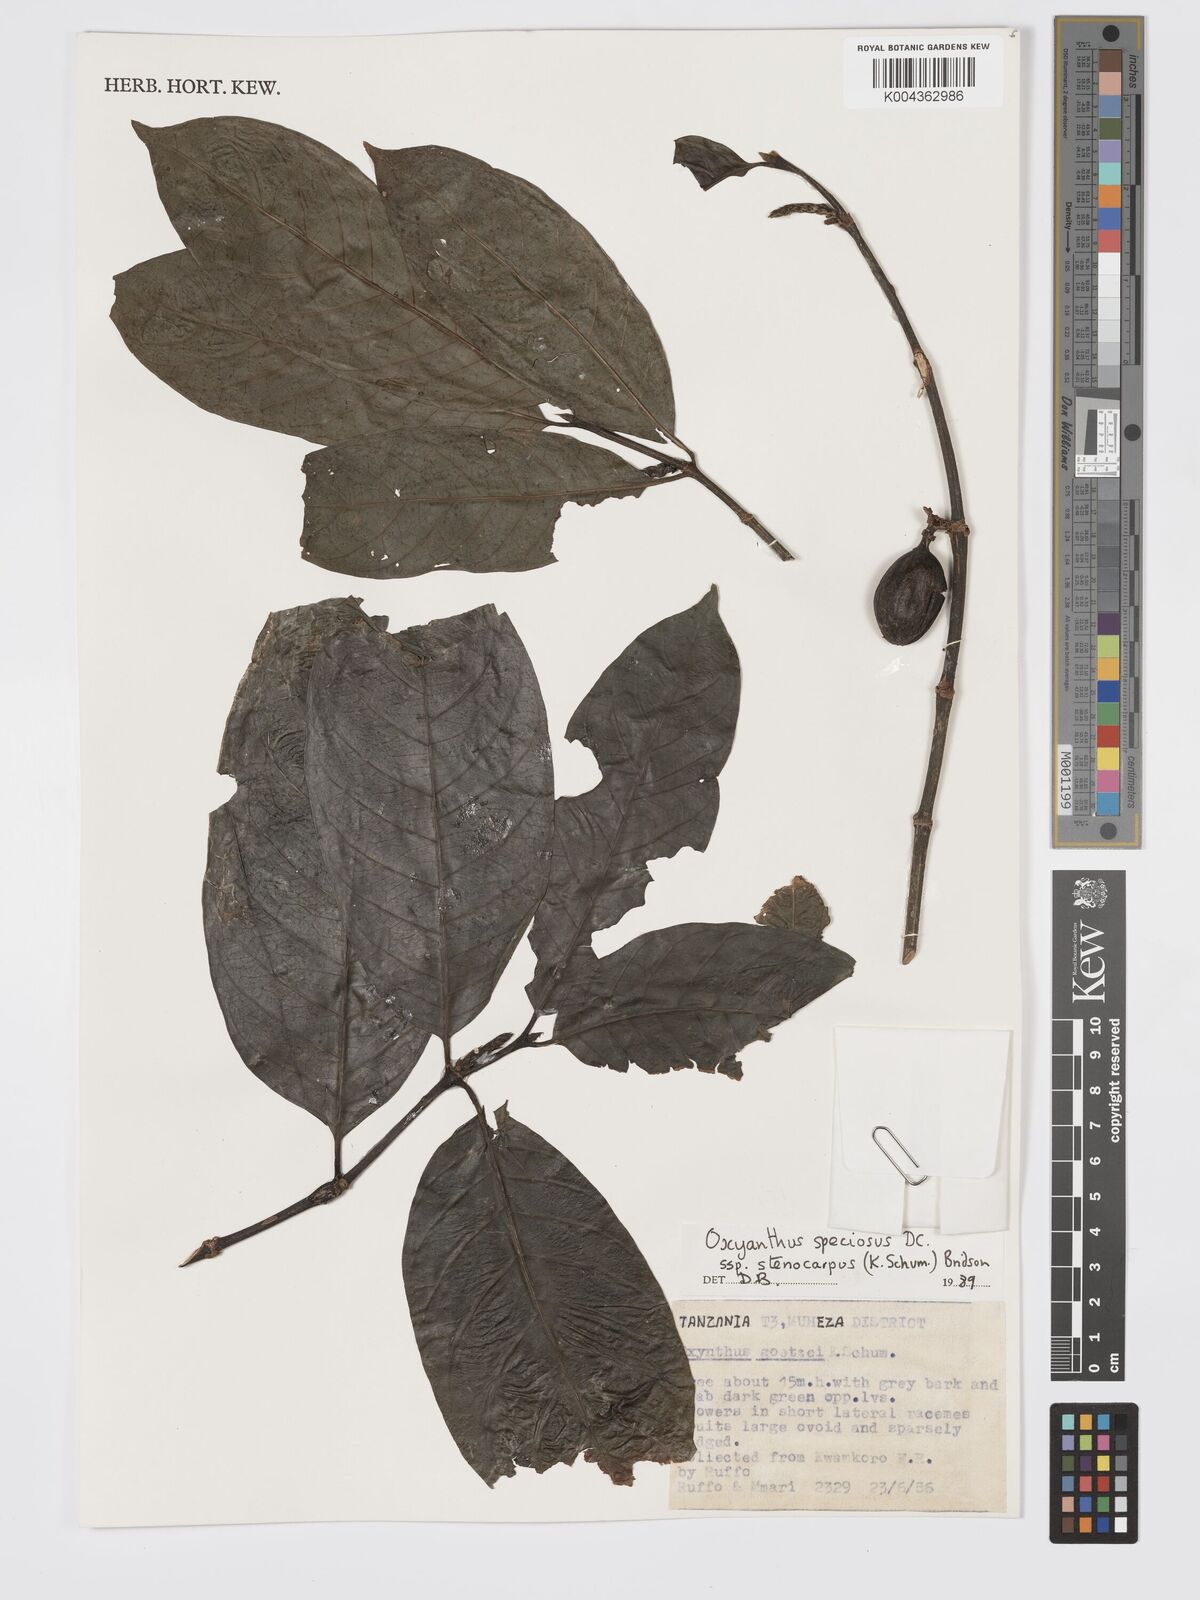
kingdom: Plantae
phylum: Tracheophyta
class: Magnoliopsida
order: Gentianales
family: Rubiaceae
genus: Oxyanthus
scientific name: Oxyanthus speciosus
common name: Whipstick loquat
